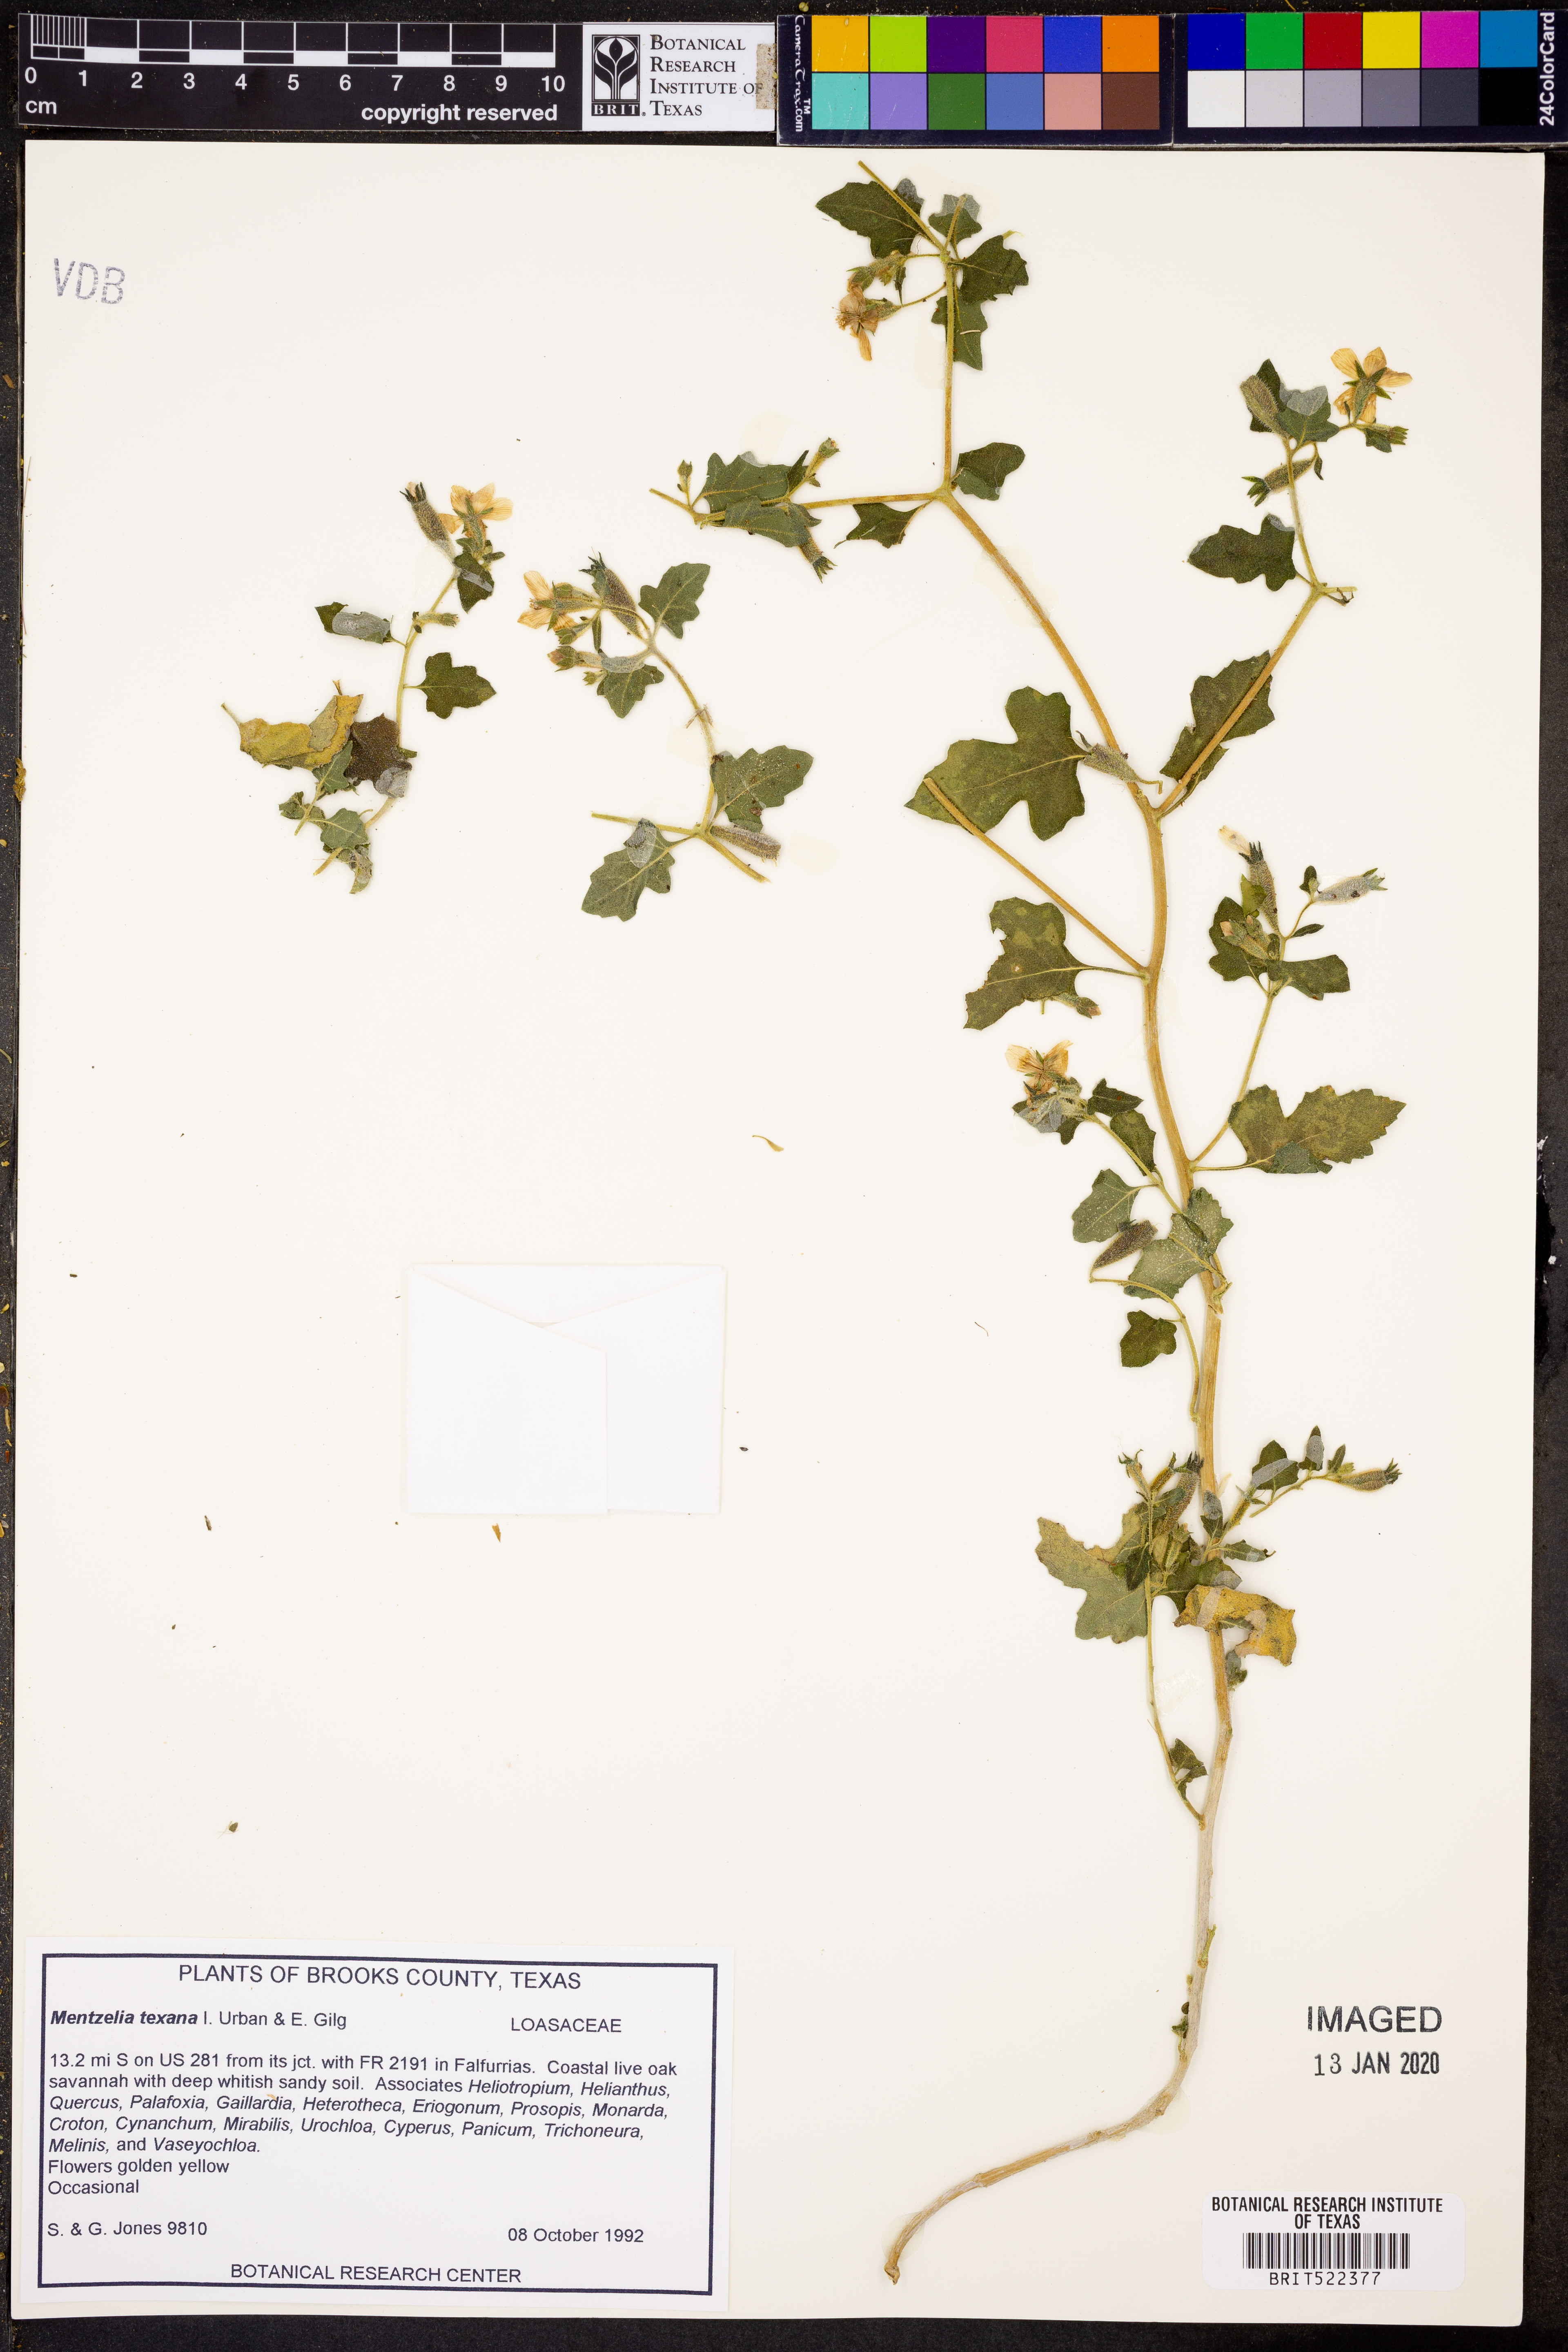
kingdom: Plantae
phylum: Tracheophyta
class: Magnoliopsida
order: Cornales
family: Loasaceae
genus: Mentzelia
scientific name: Mentzelia texana
